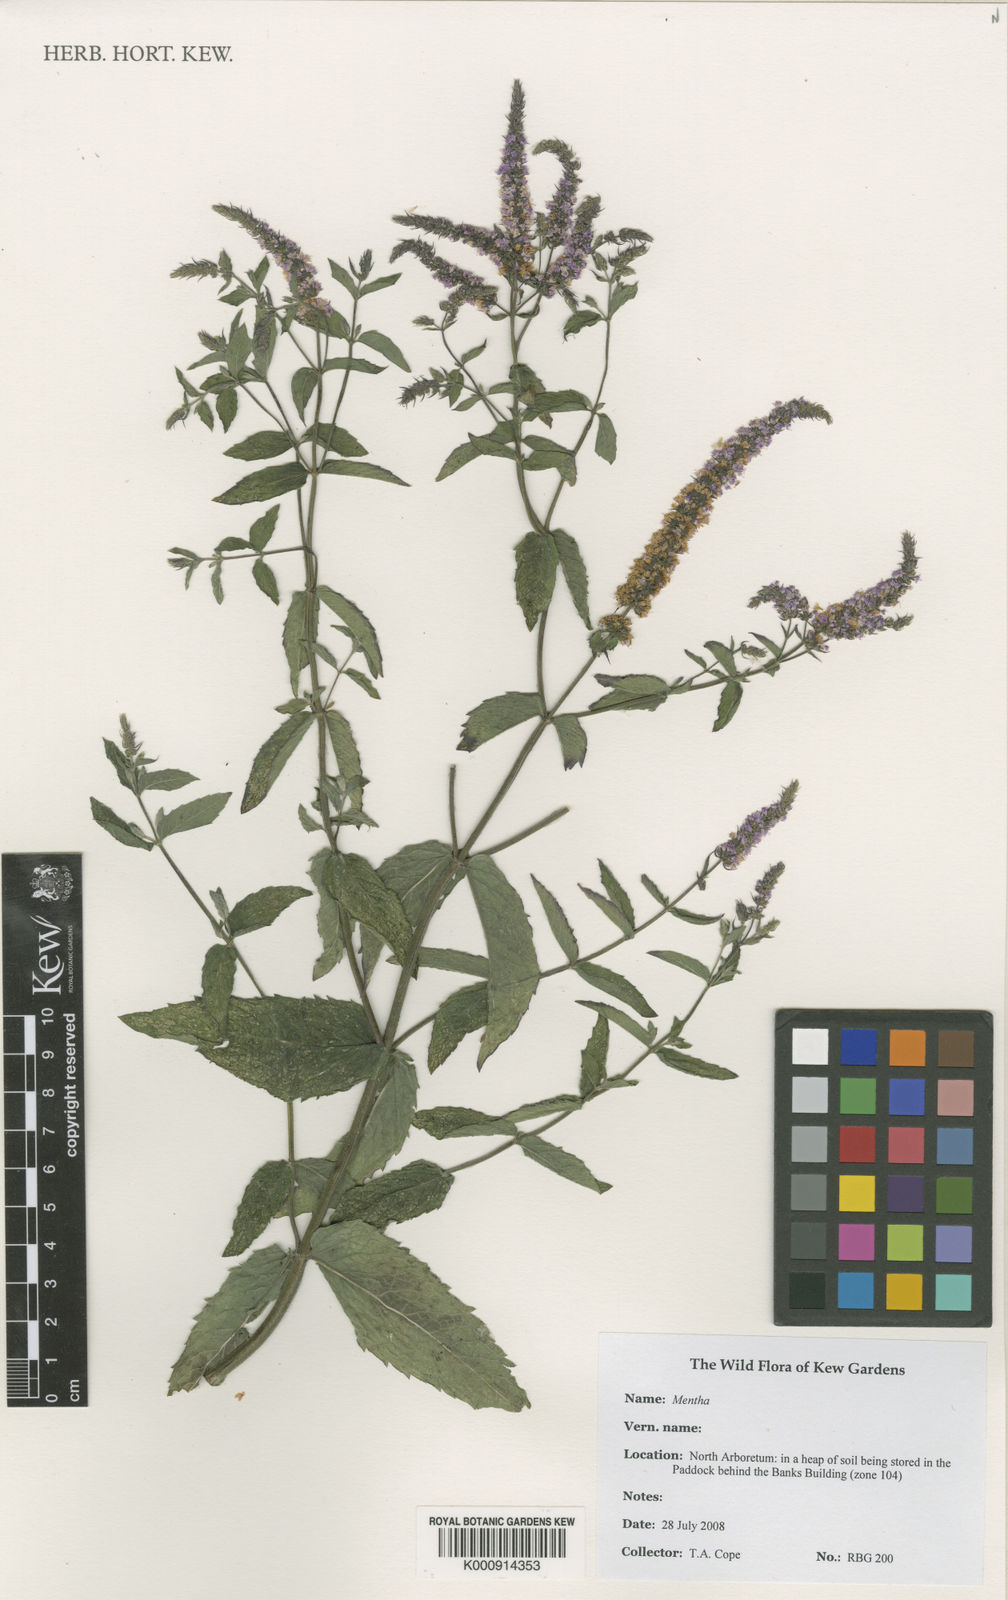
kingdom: Plantae
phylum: Tracheophyta
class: Magnoliopsida
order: Lamiales
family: Lamiaceae
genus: Mentha
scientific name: Mentha
